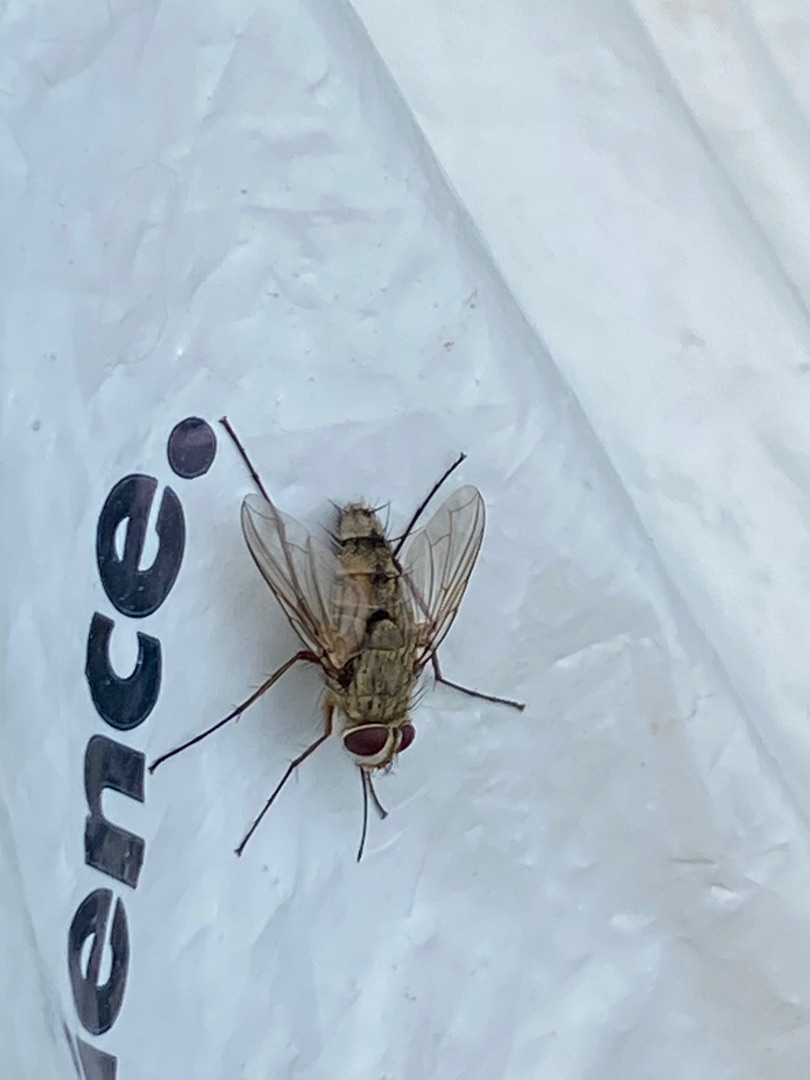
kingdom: Animalia
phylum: Arthropoda
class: Insecta
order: Diptera
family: Tachinidae
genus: Prosena
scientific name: Prosena siberita
